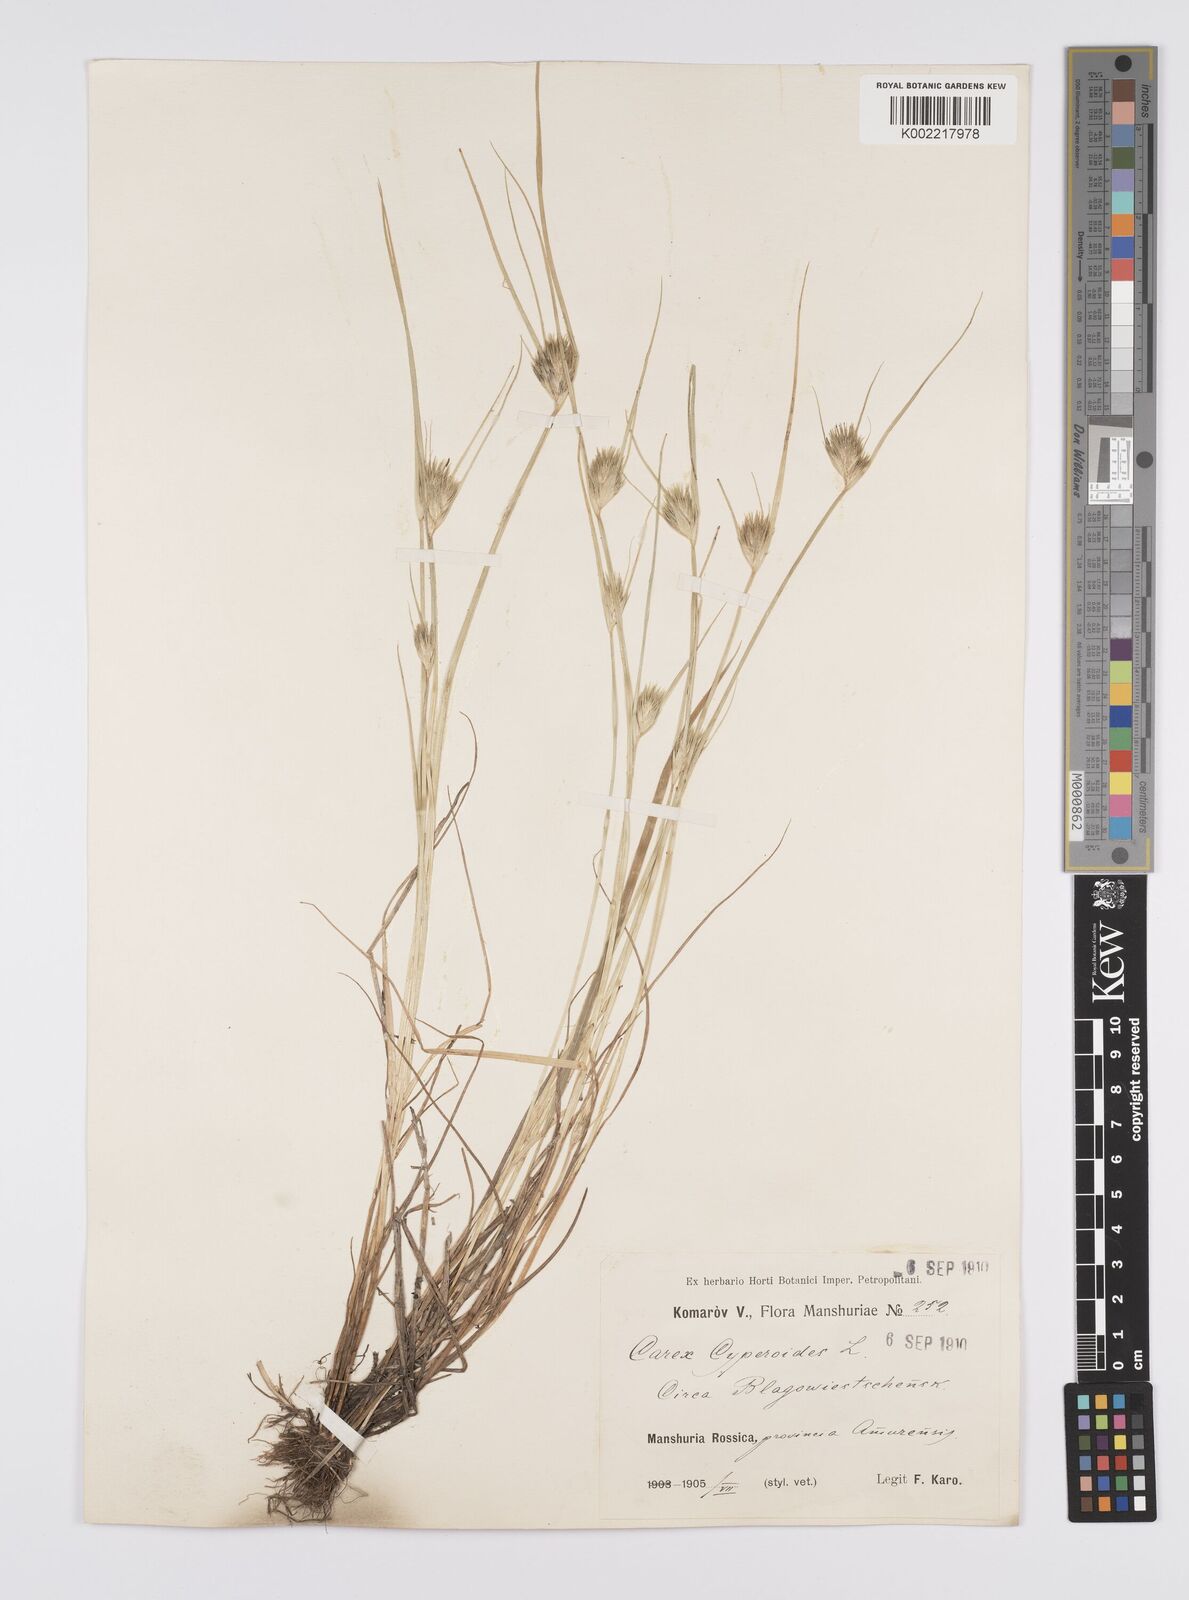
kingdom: Plantae
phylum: Tracheophyta
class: Liliopsida
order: Poales
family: Cyperaceae
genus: Carex
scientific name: Carex bohemica
